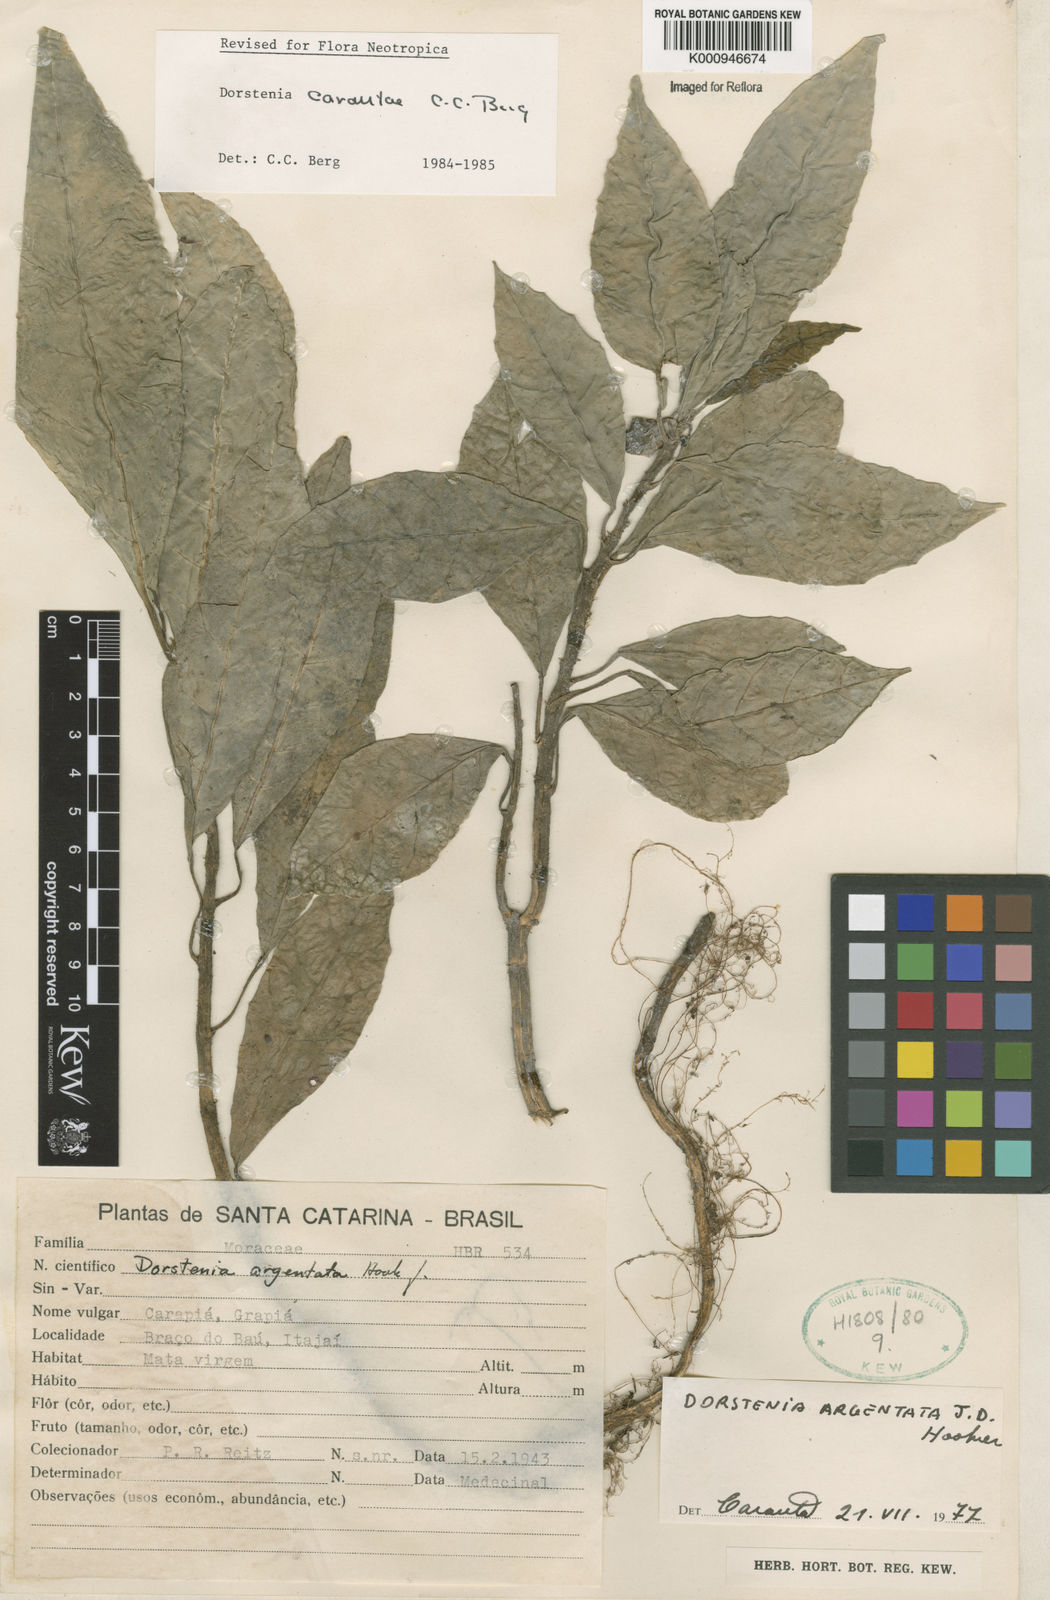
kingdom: Plantae
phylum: Tracheophyta
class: Magnoliopsida
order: Rosales
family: Moraceae
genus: Dorstenia
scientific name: Dorstenia carautae
